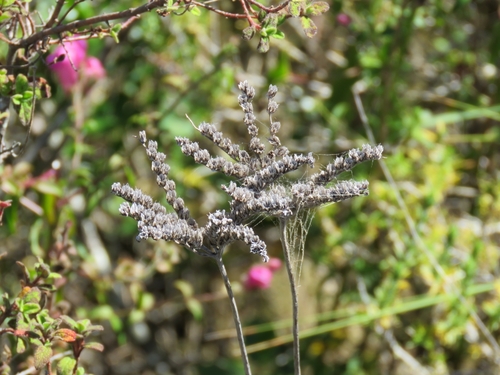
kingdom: Plantae
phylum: Tracheophyta
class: Magnoliopsida
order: Saxifragales
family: Crassulaceae
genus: Petrosedum
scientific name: Petrosedum sediforme
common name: Pale stonecrop
